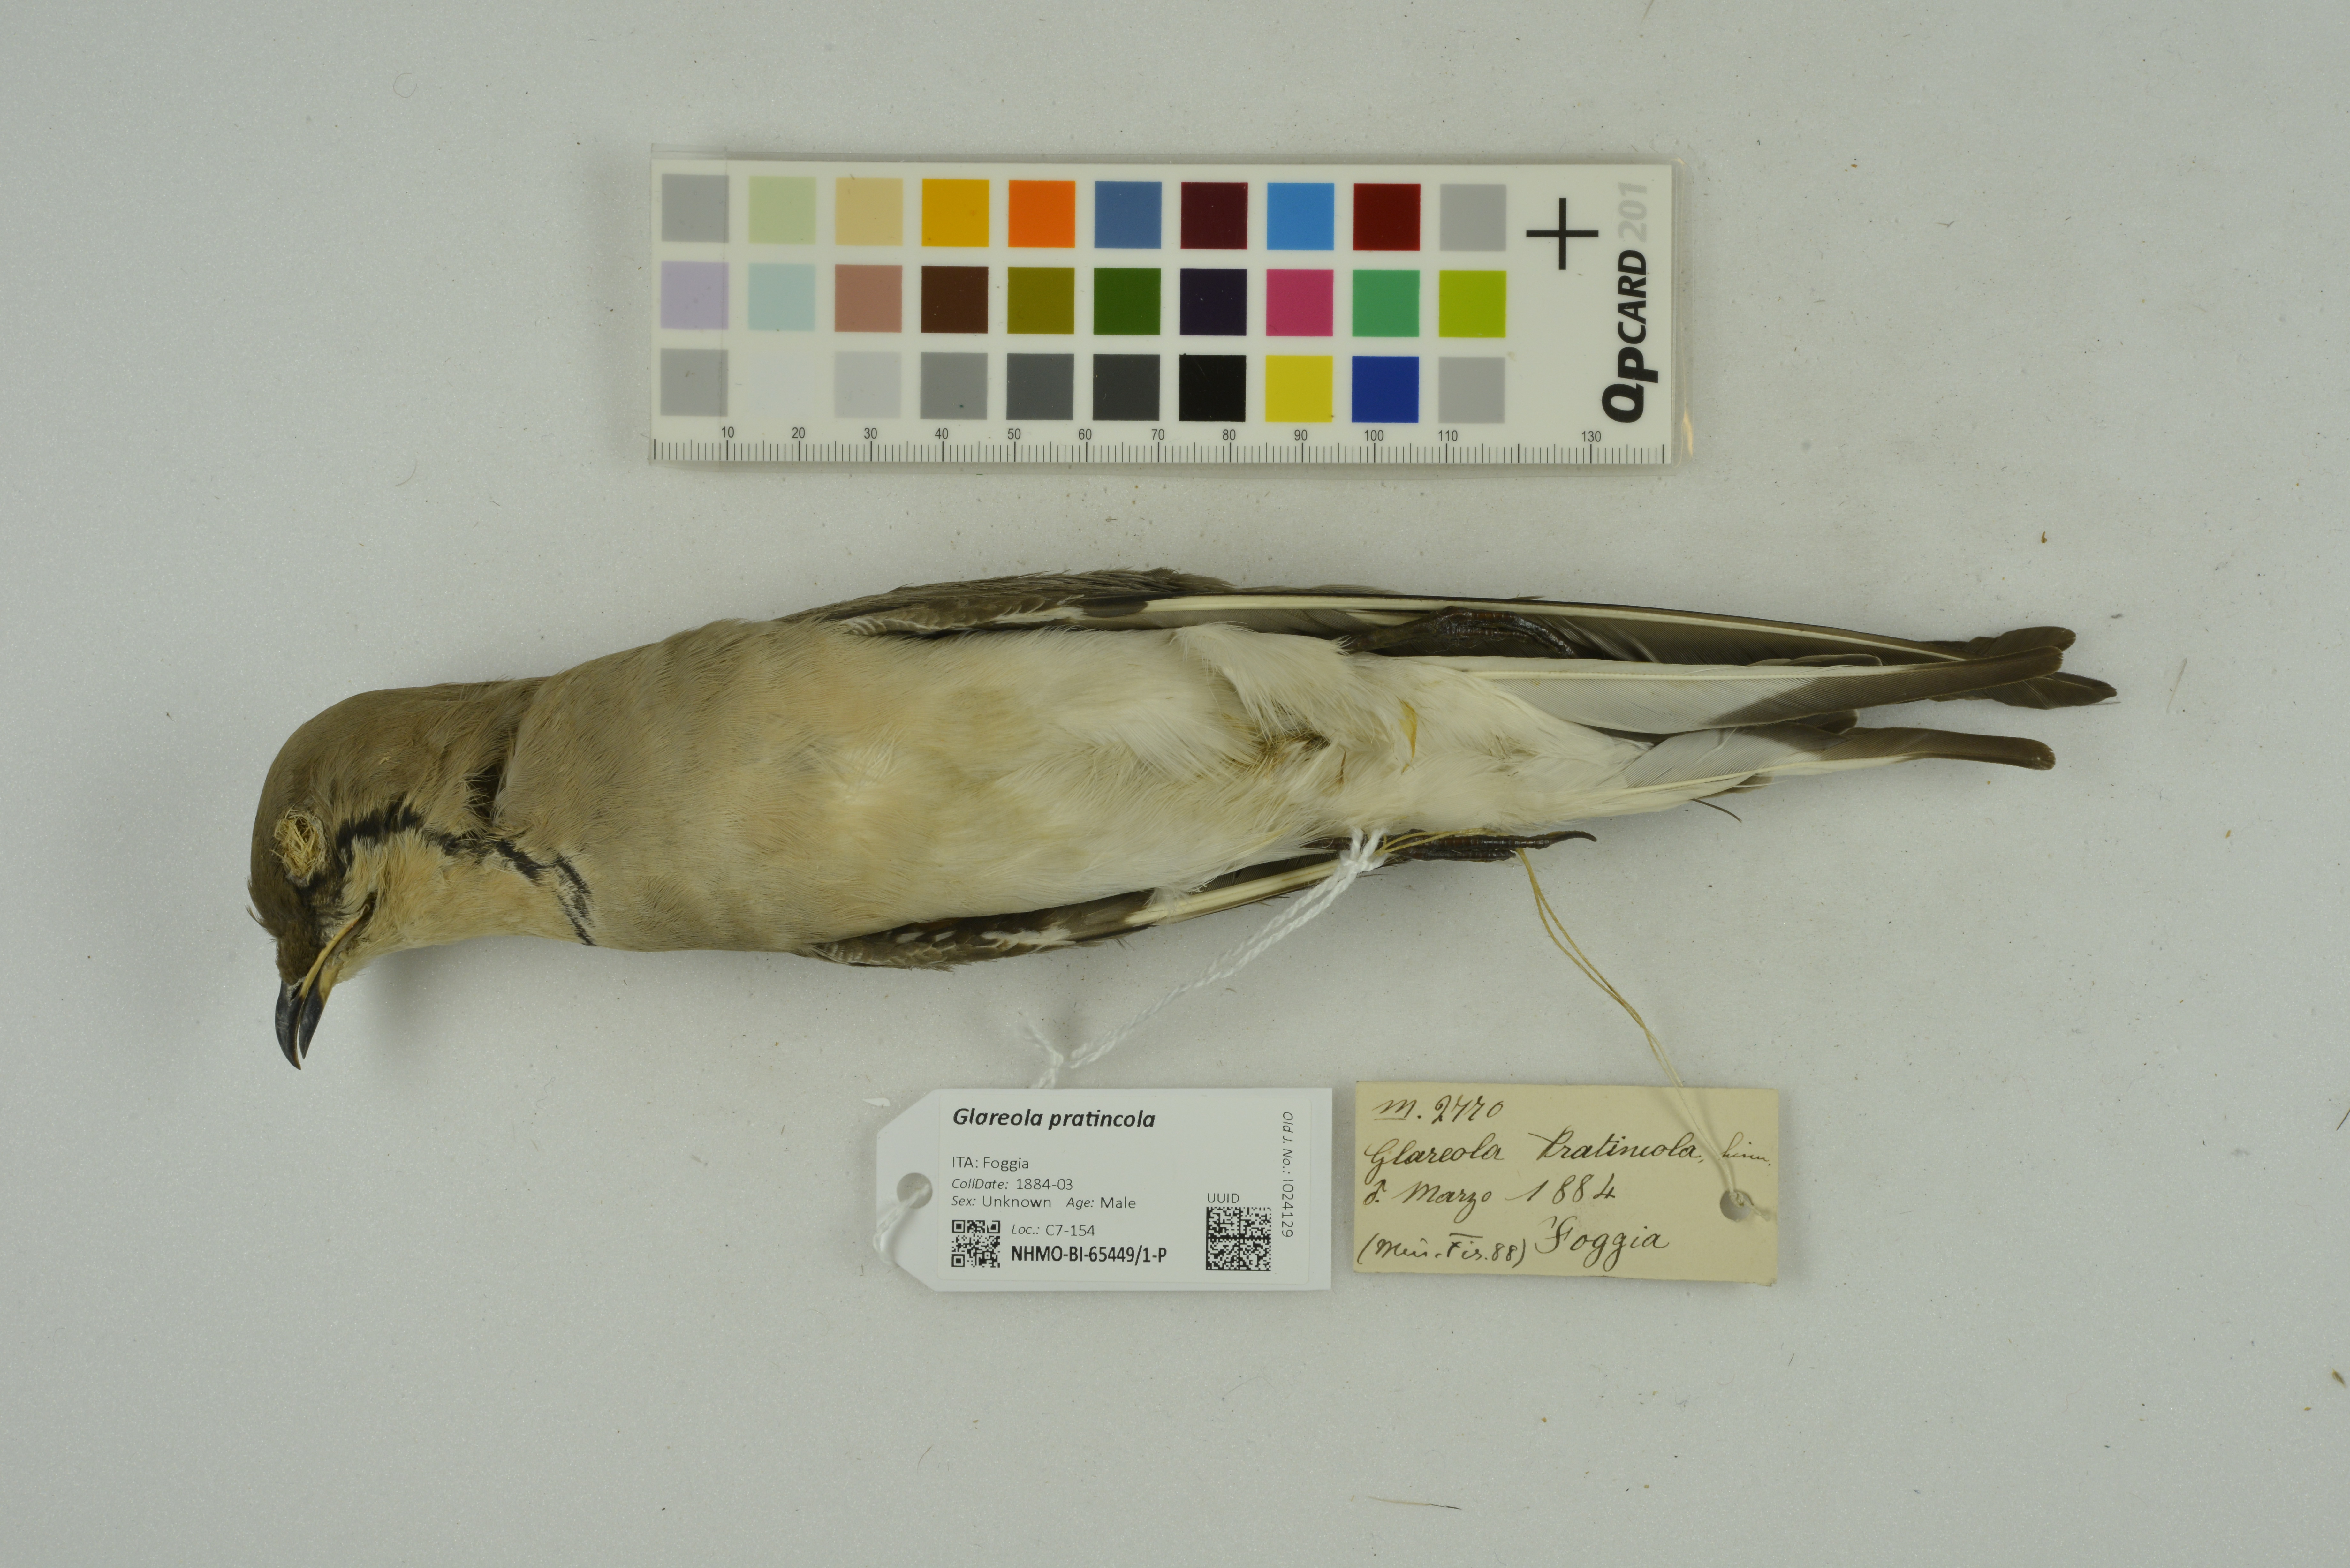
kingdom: Animalia
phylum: Chordata
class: Aves
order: Charadriiformes
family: Glareolidae
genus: Glareola
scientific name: Glareola pratincola
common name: Collared pratincole
